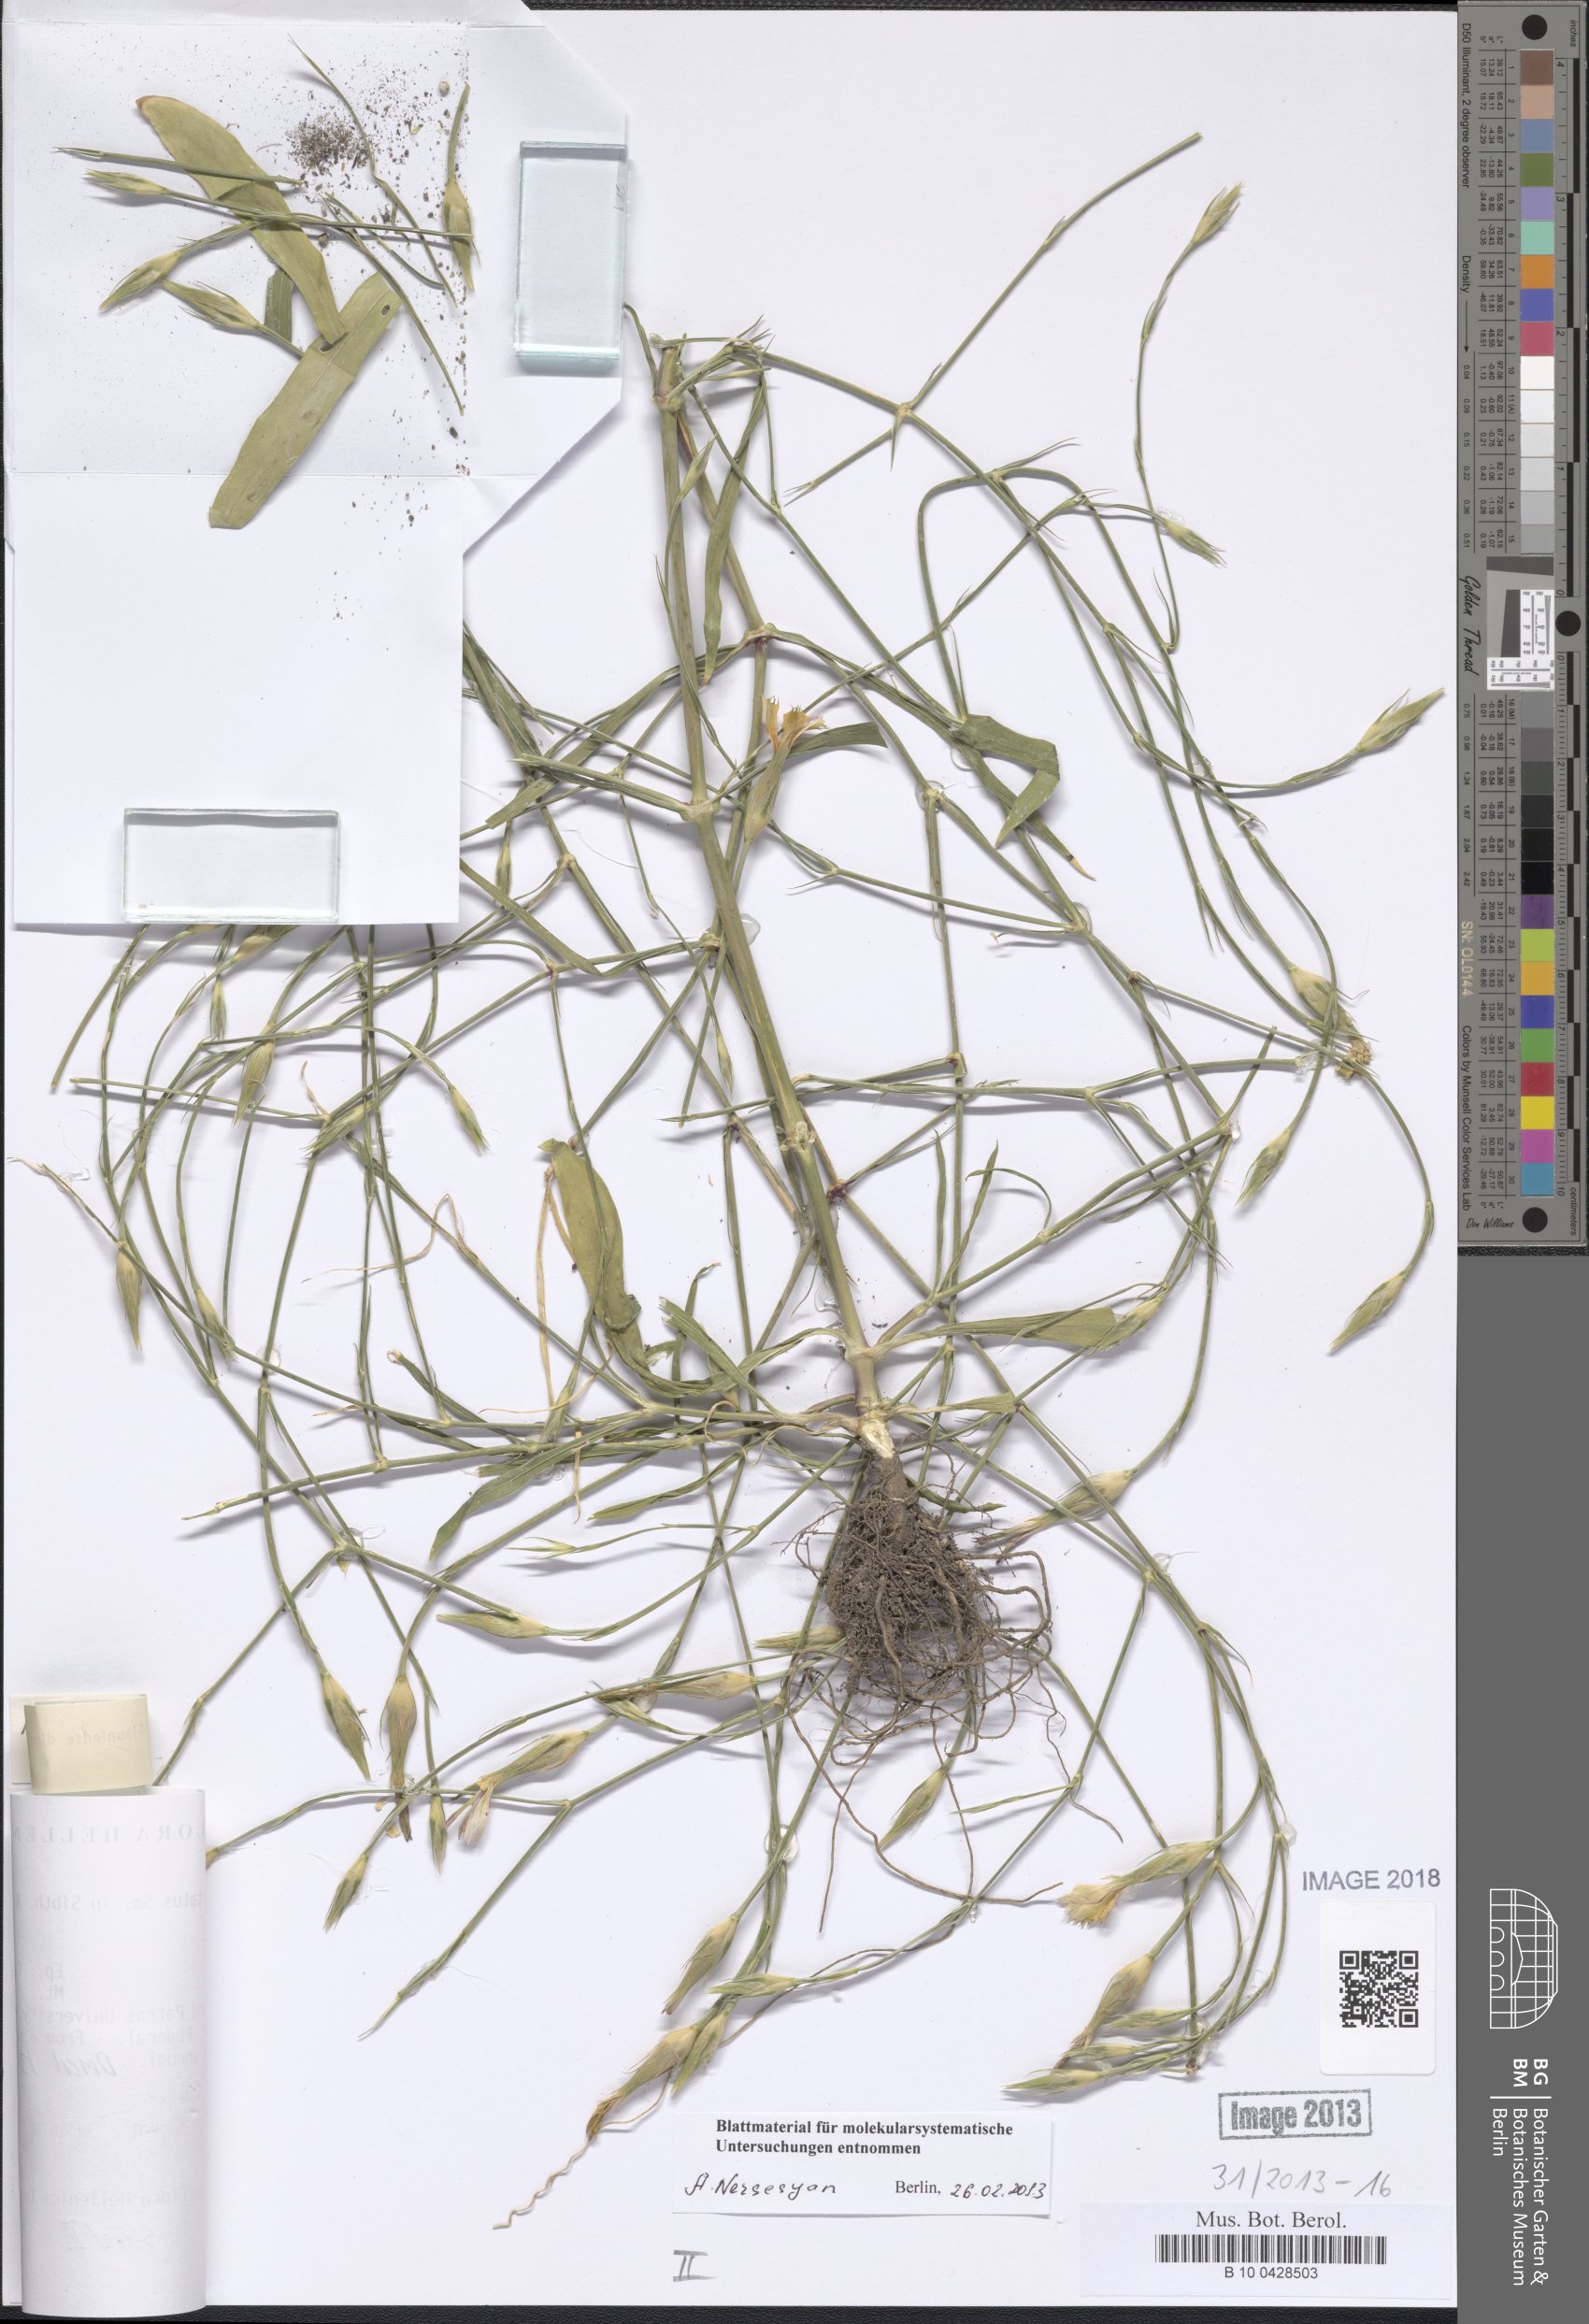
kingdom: Plantae
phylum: Tracheophyta
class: Magnoliopsida
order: Caryophyllales
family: Caryophyllaceae
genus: Dianthus
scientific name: Dianthus tripunctatus
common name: Three-spotted pink
